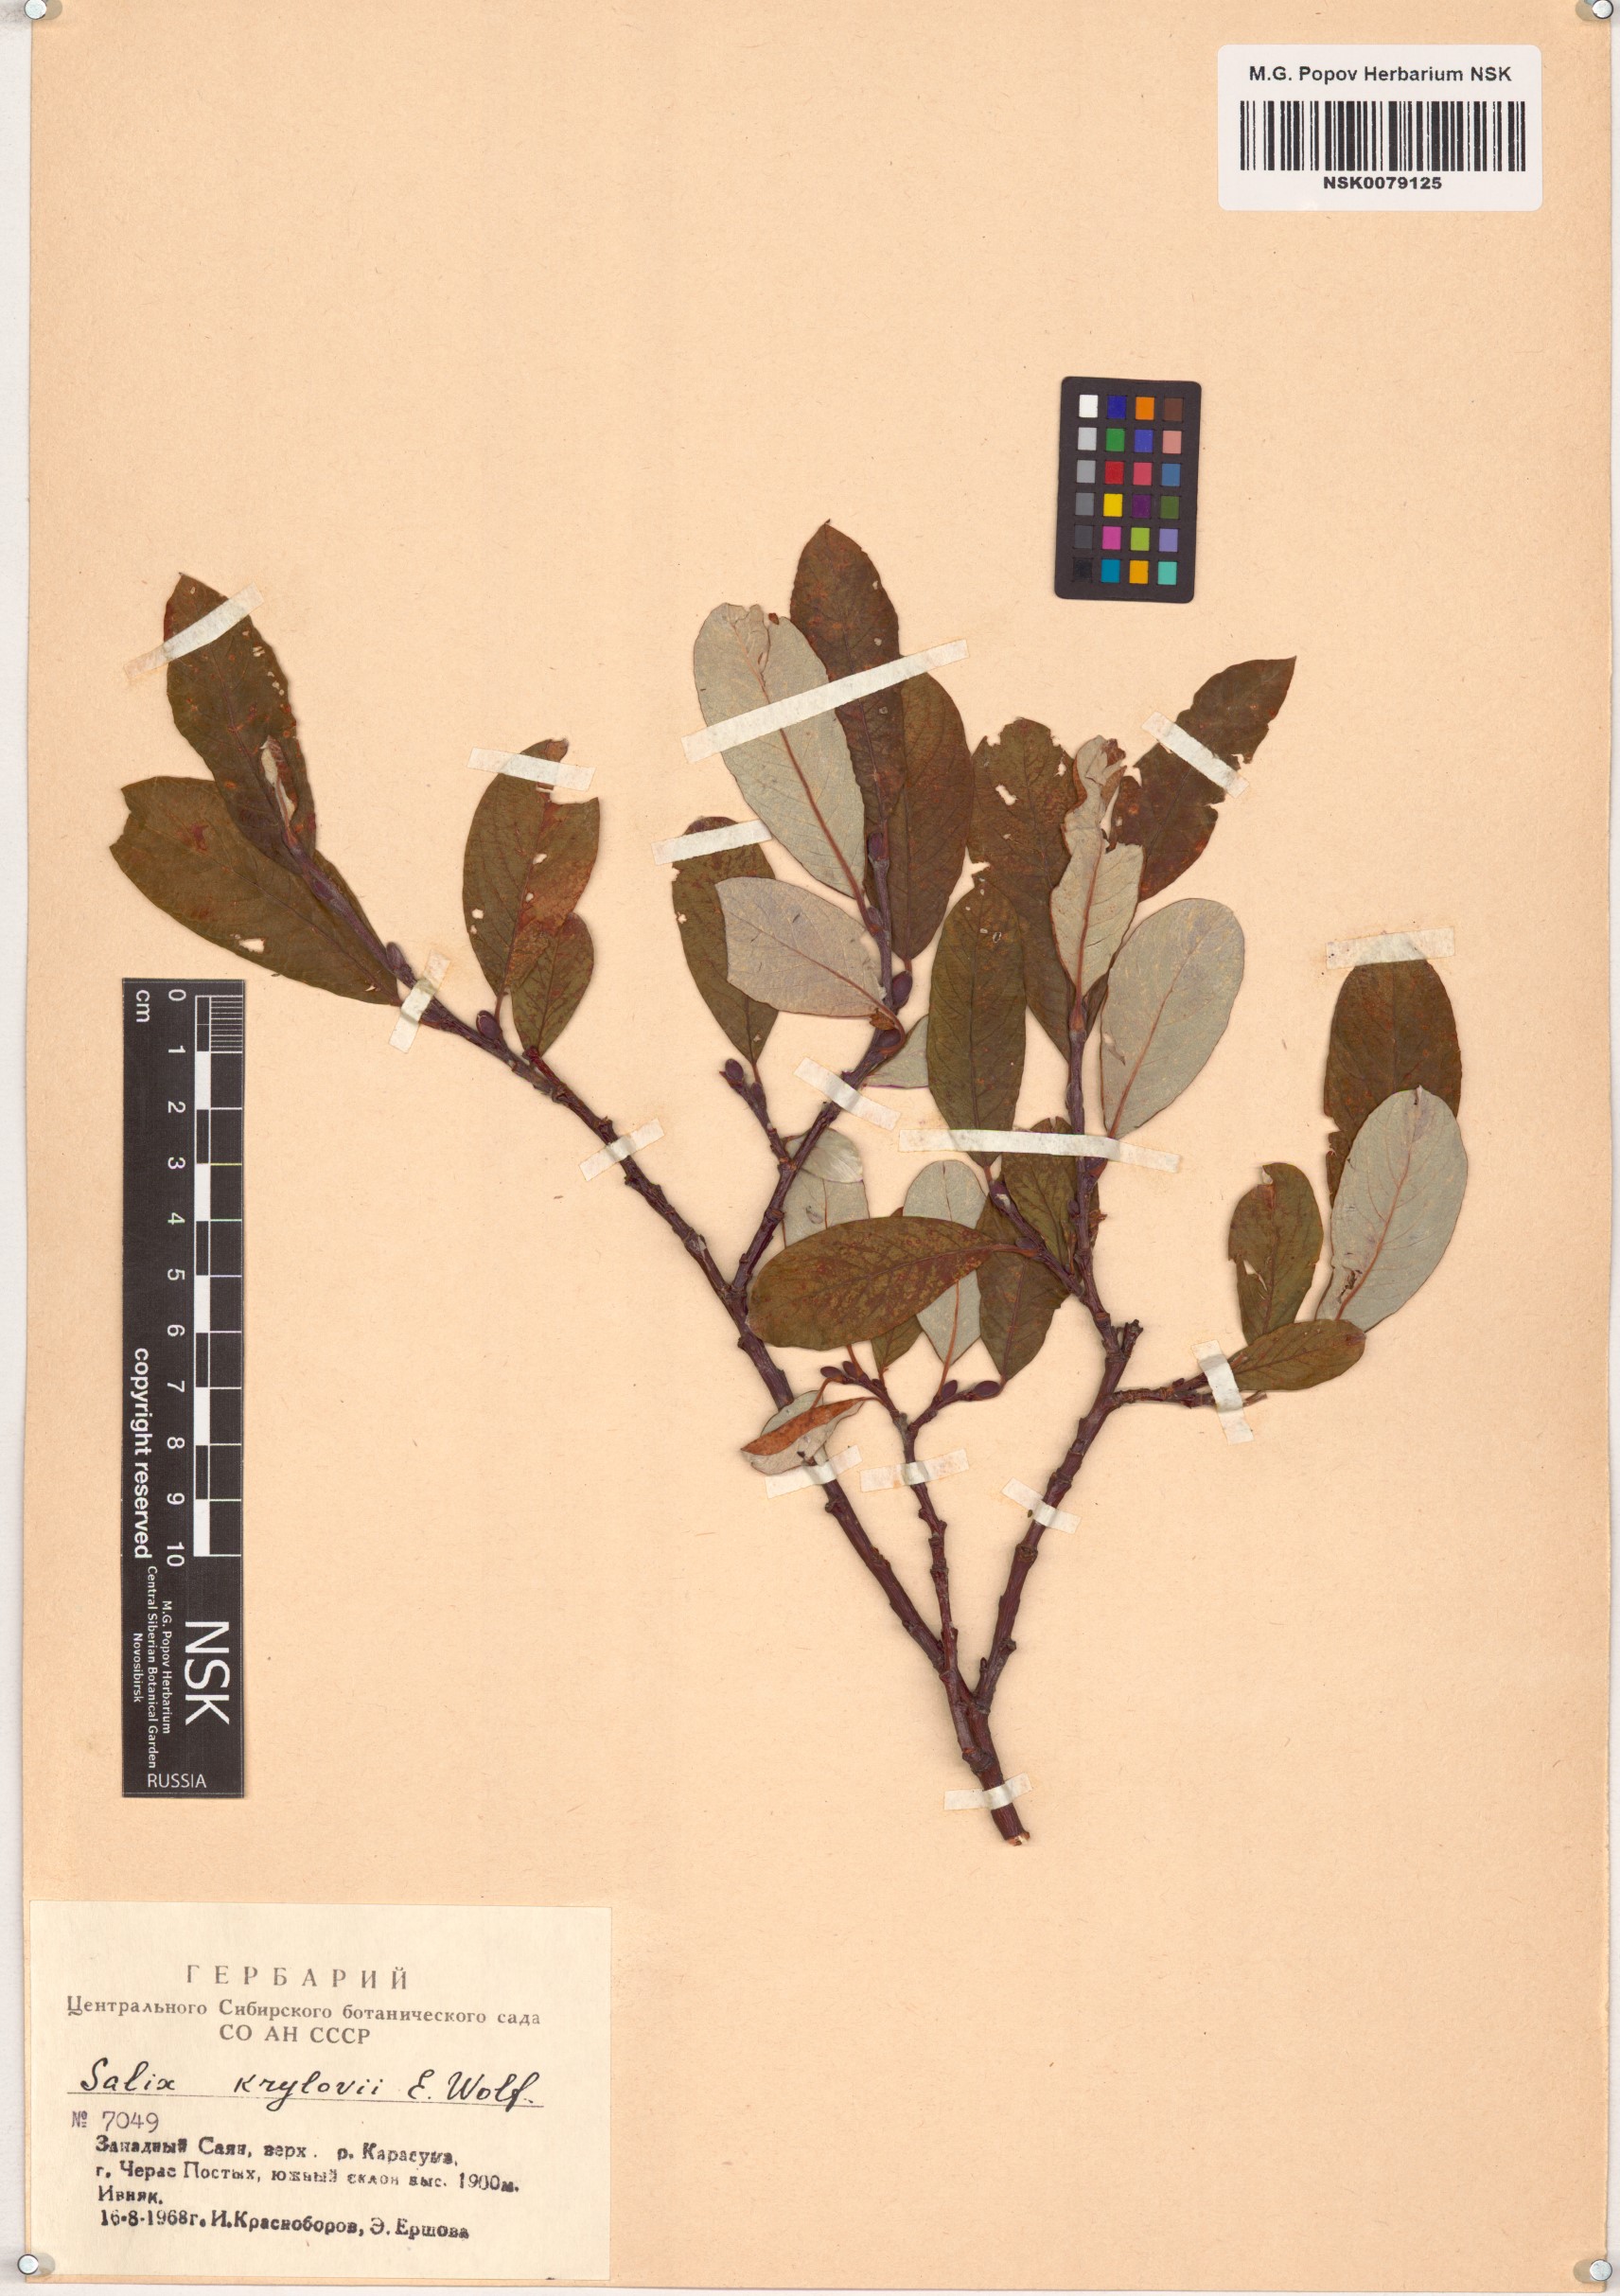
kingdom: Plantae
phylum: Tracheophyta
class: Magnoliopsida
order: Malpighiales
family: Salicaceae
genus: Salix
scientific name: Salix krylovii
